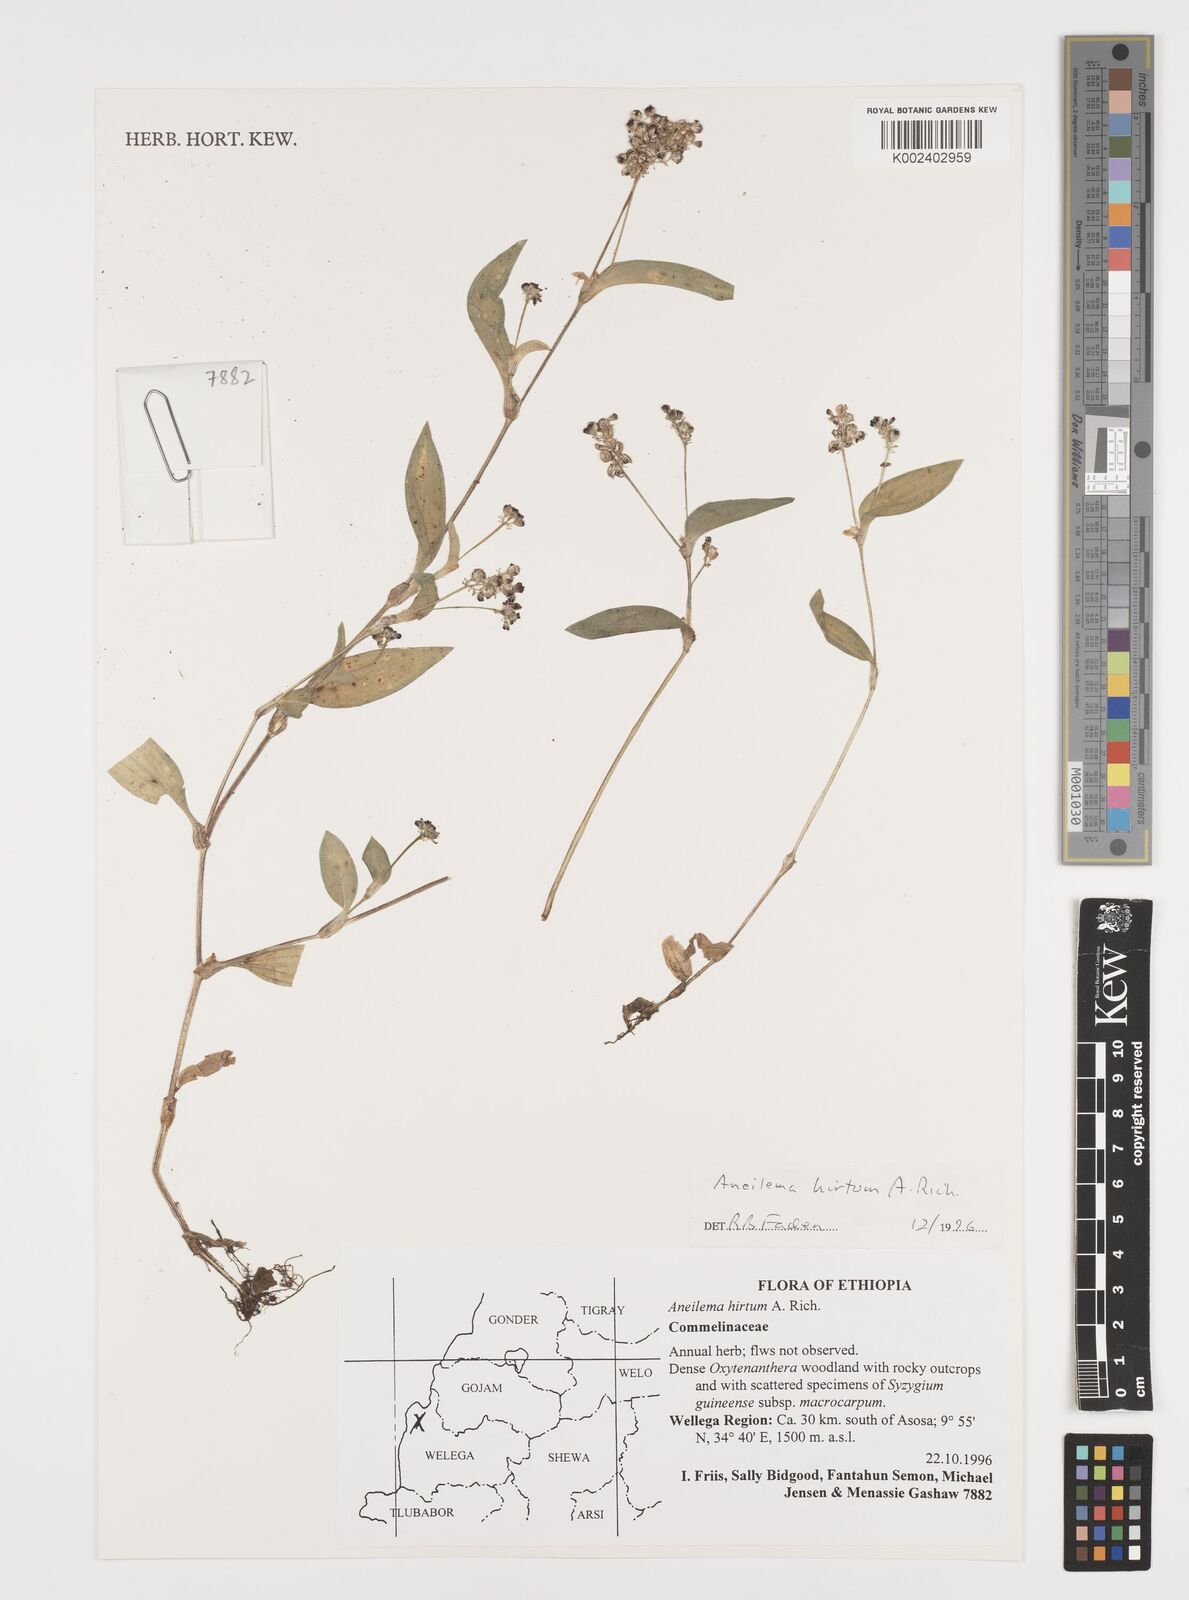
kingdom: Plantae
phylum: Tracheophyta
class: Liliopsida
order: Commelinales
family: Commelinaceae
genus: Aneilema
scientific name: Aneilema hirtum
